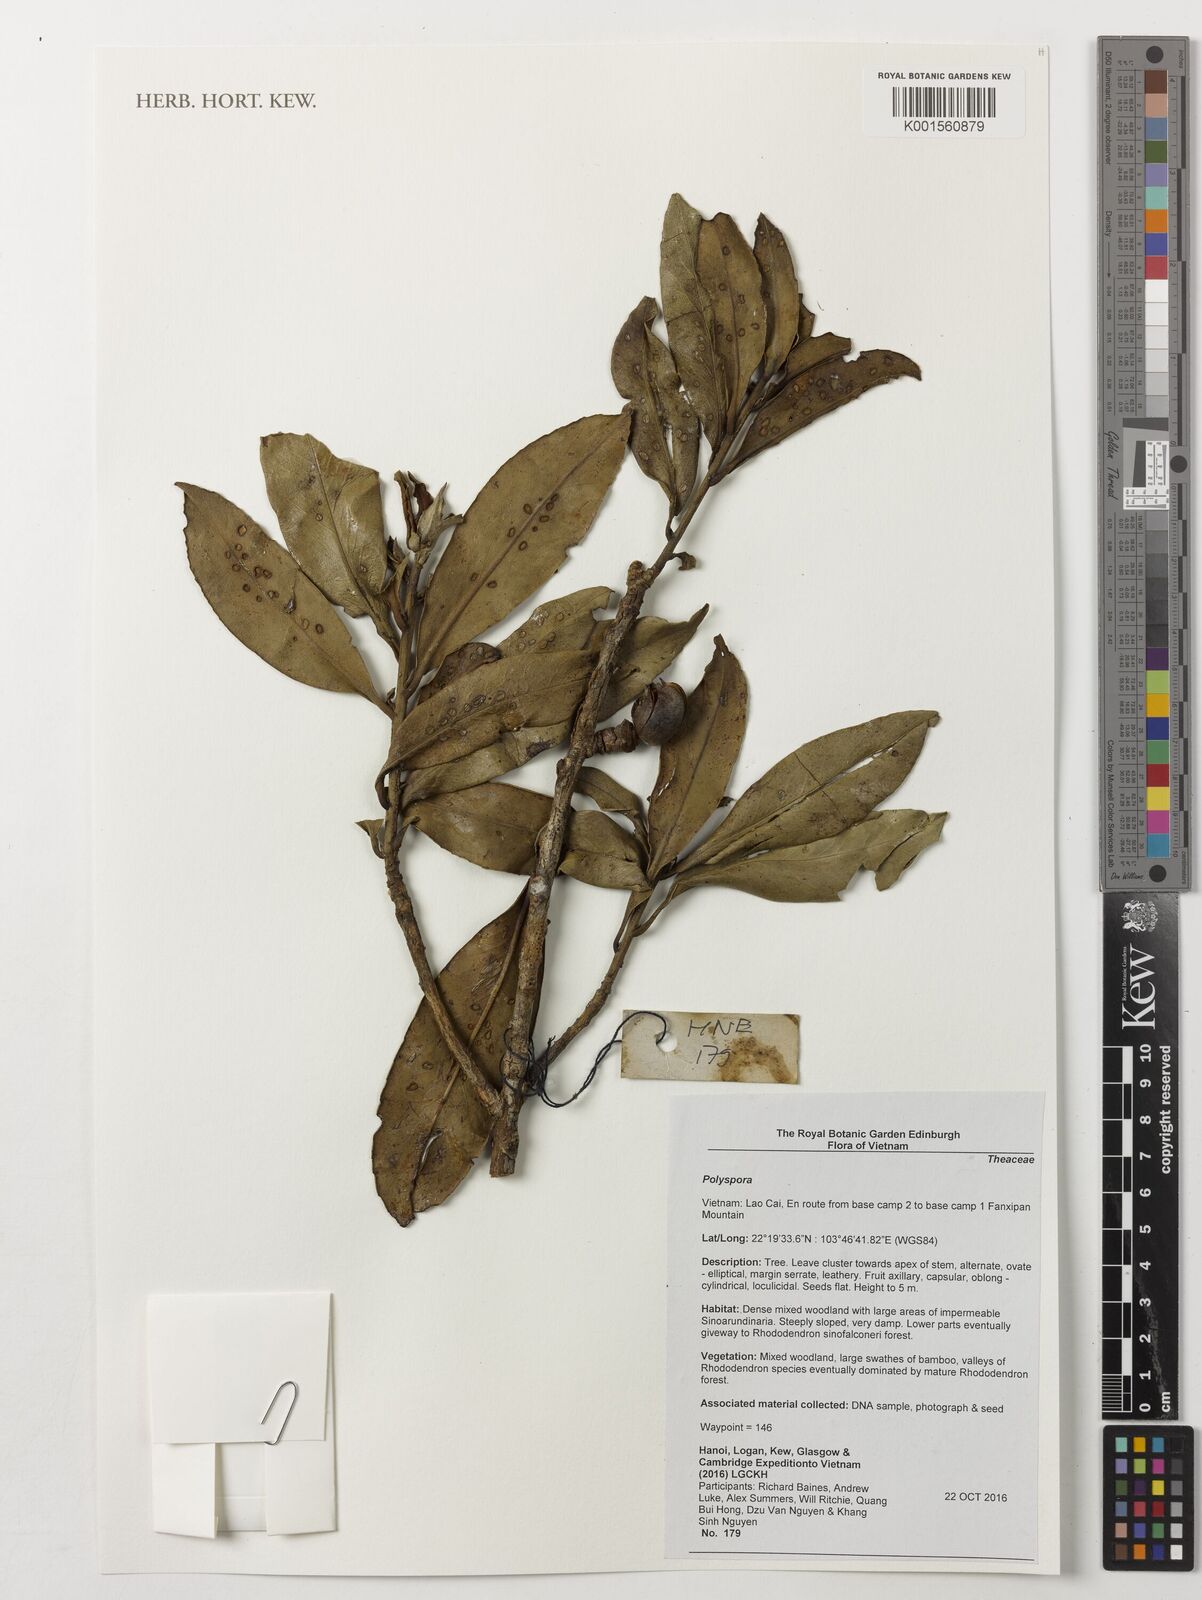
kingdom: Plantae
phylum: Tracheophyta
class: Magnoliopsida
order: Ericales
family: Theaceae
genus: Polyspora
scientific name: Polyspora
